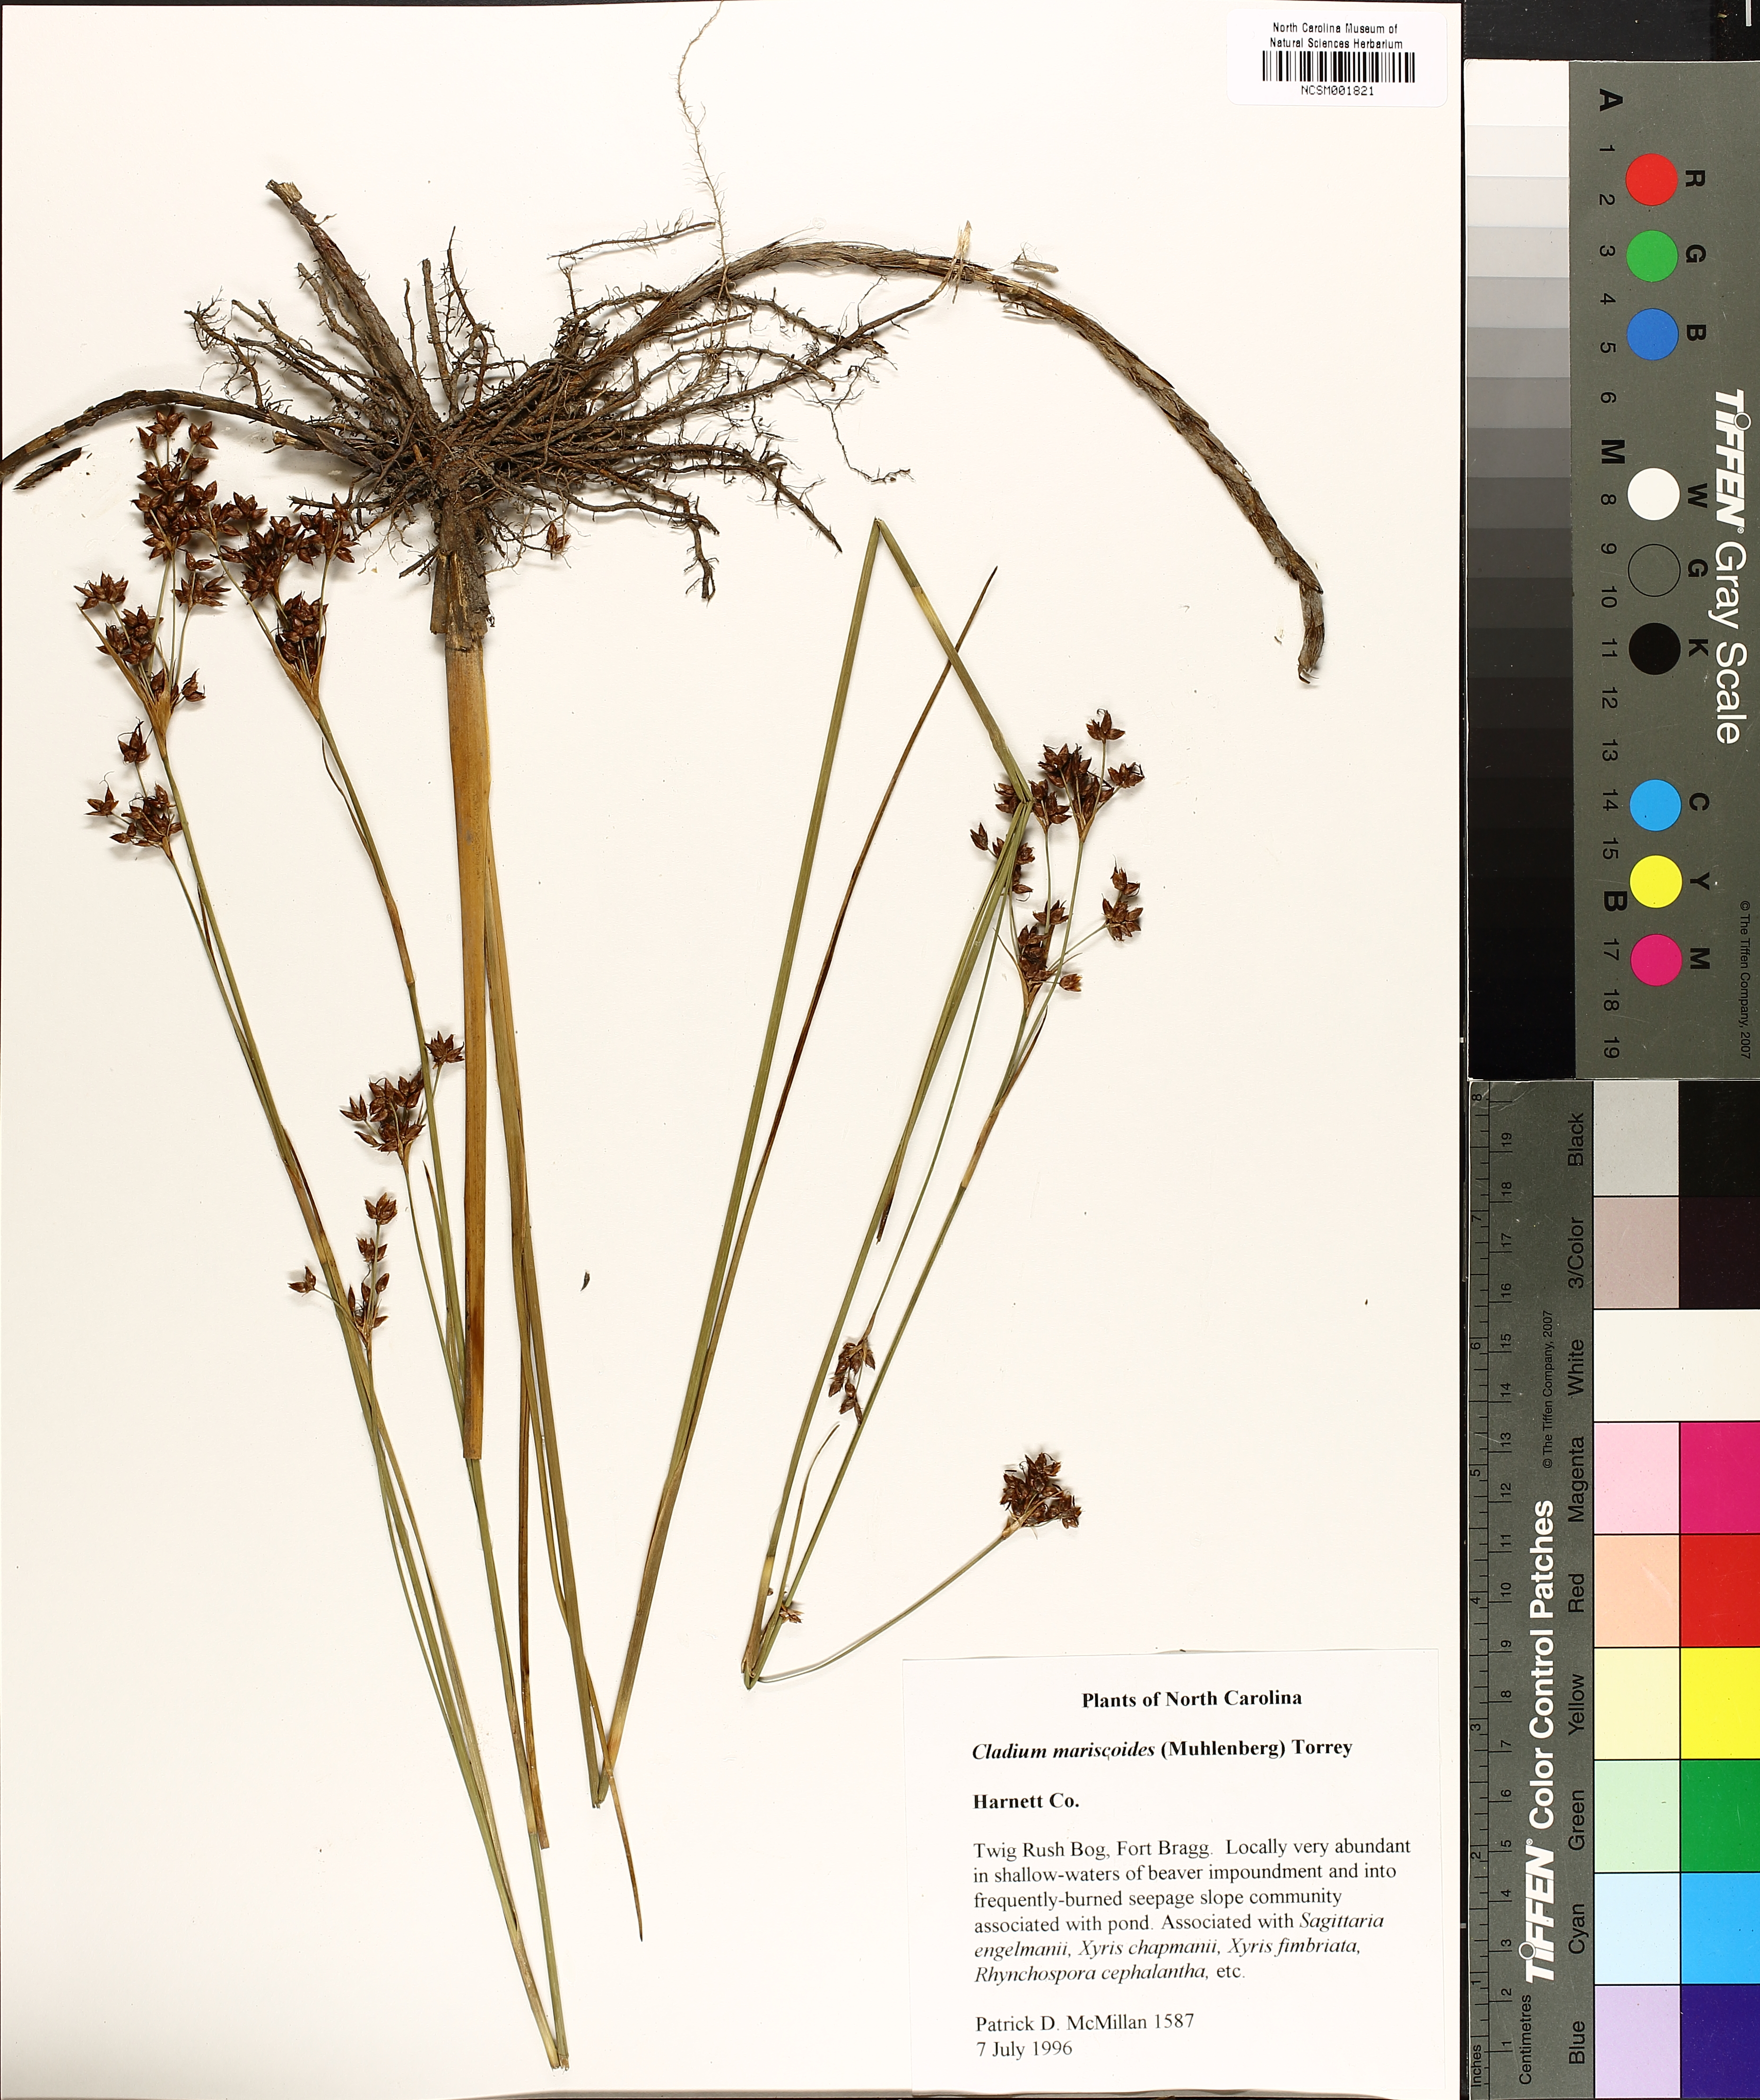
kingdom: Plantae
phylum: Tracheophyta
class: Liliopsida
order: Poales
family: Cyperaceae
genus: Cladium
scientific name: Cladium mariscoides
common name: Smooth sawgrass
